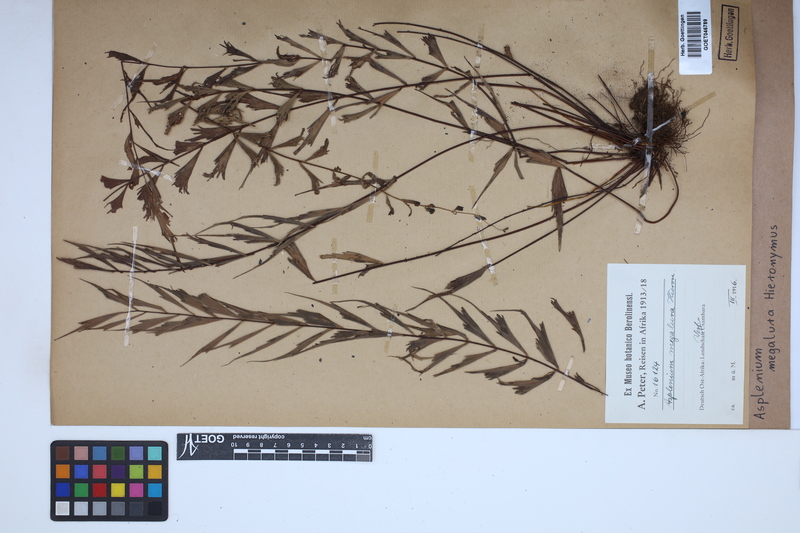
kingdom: Plantae
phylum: Tracheophyta
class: Polypodiopsida
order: Polypodiales
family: Aspleniaceae
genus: Asplenium
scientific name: Asplenium megalura
